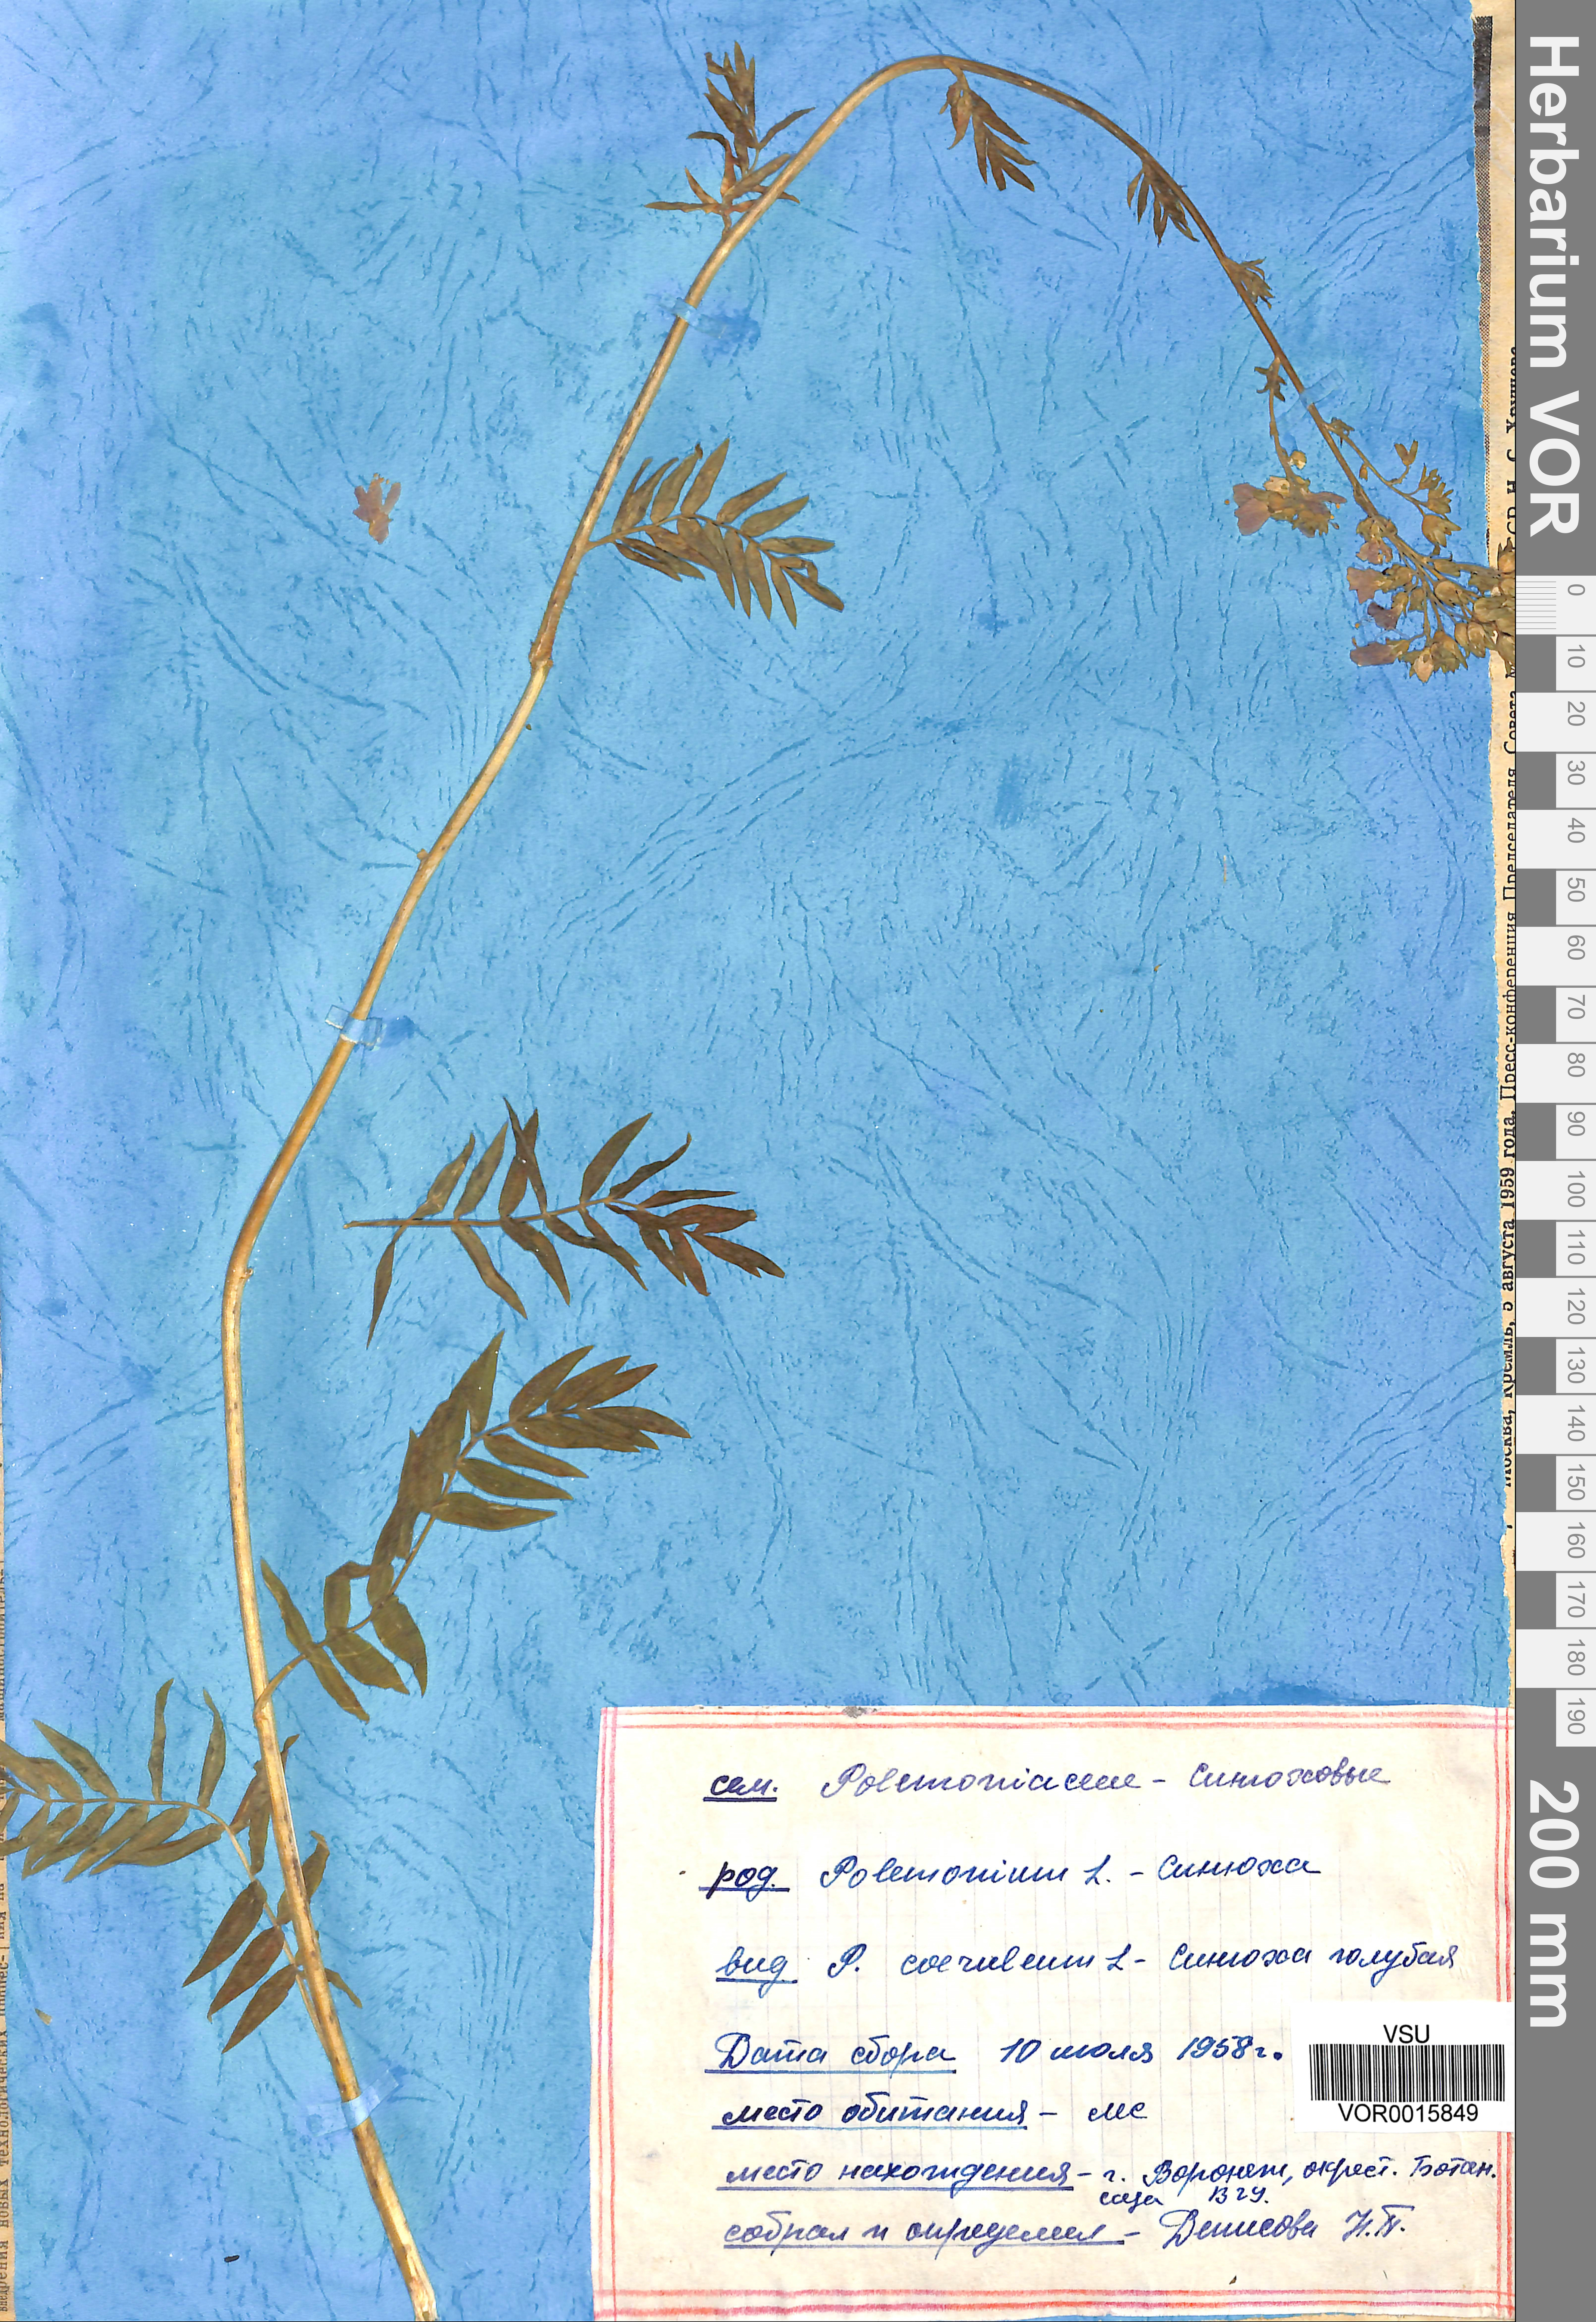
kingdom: Plantae
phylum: Tracheophyta
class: Magnoliopsida
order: Ericales
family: Polemoniaceae
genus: Polemonium
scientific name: Polemonium caeruleum
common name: Jacob's-ladder
